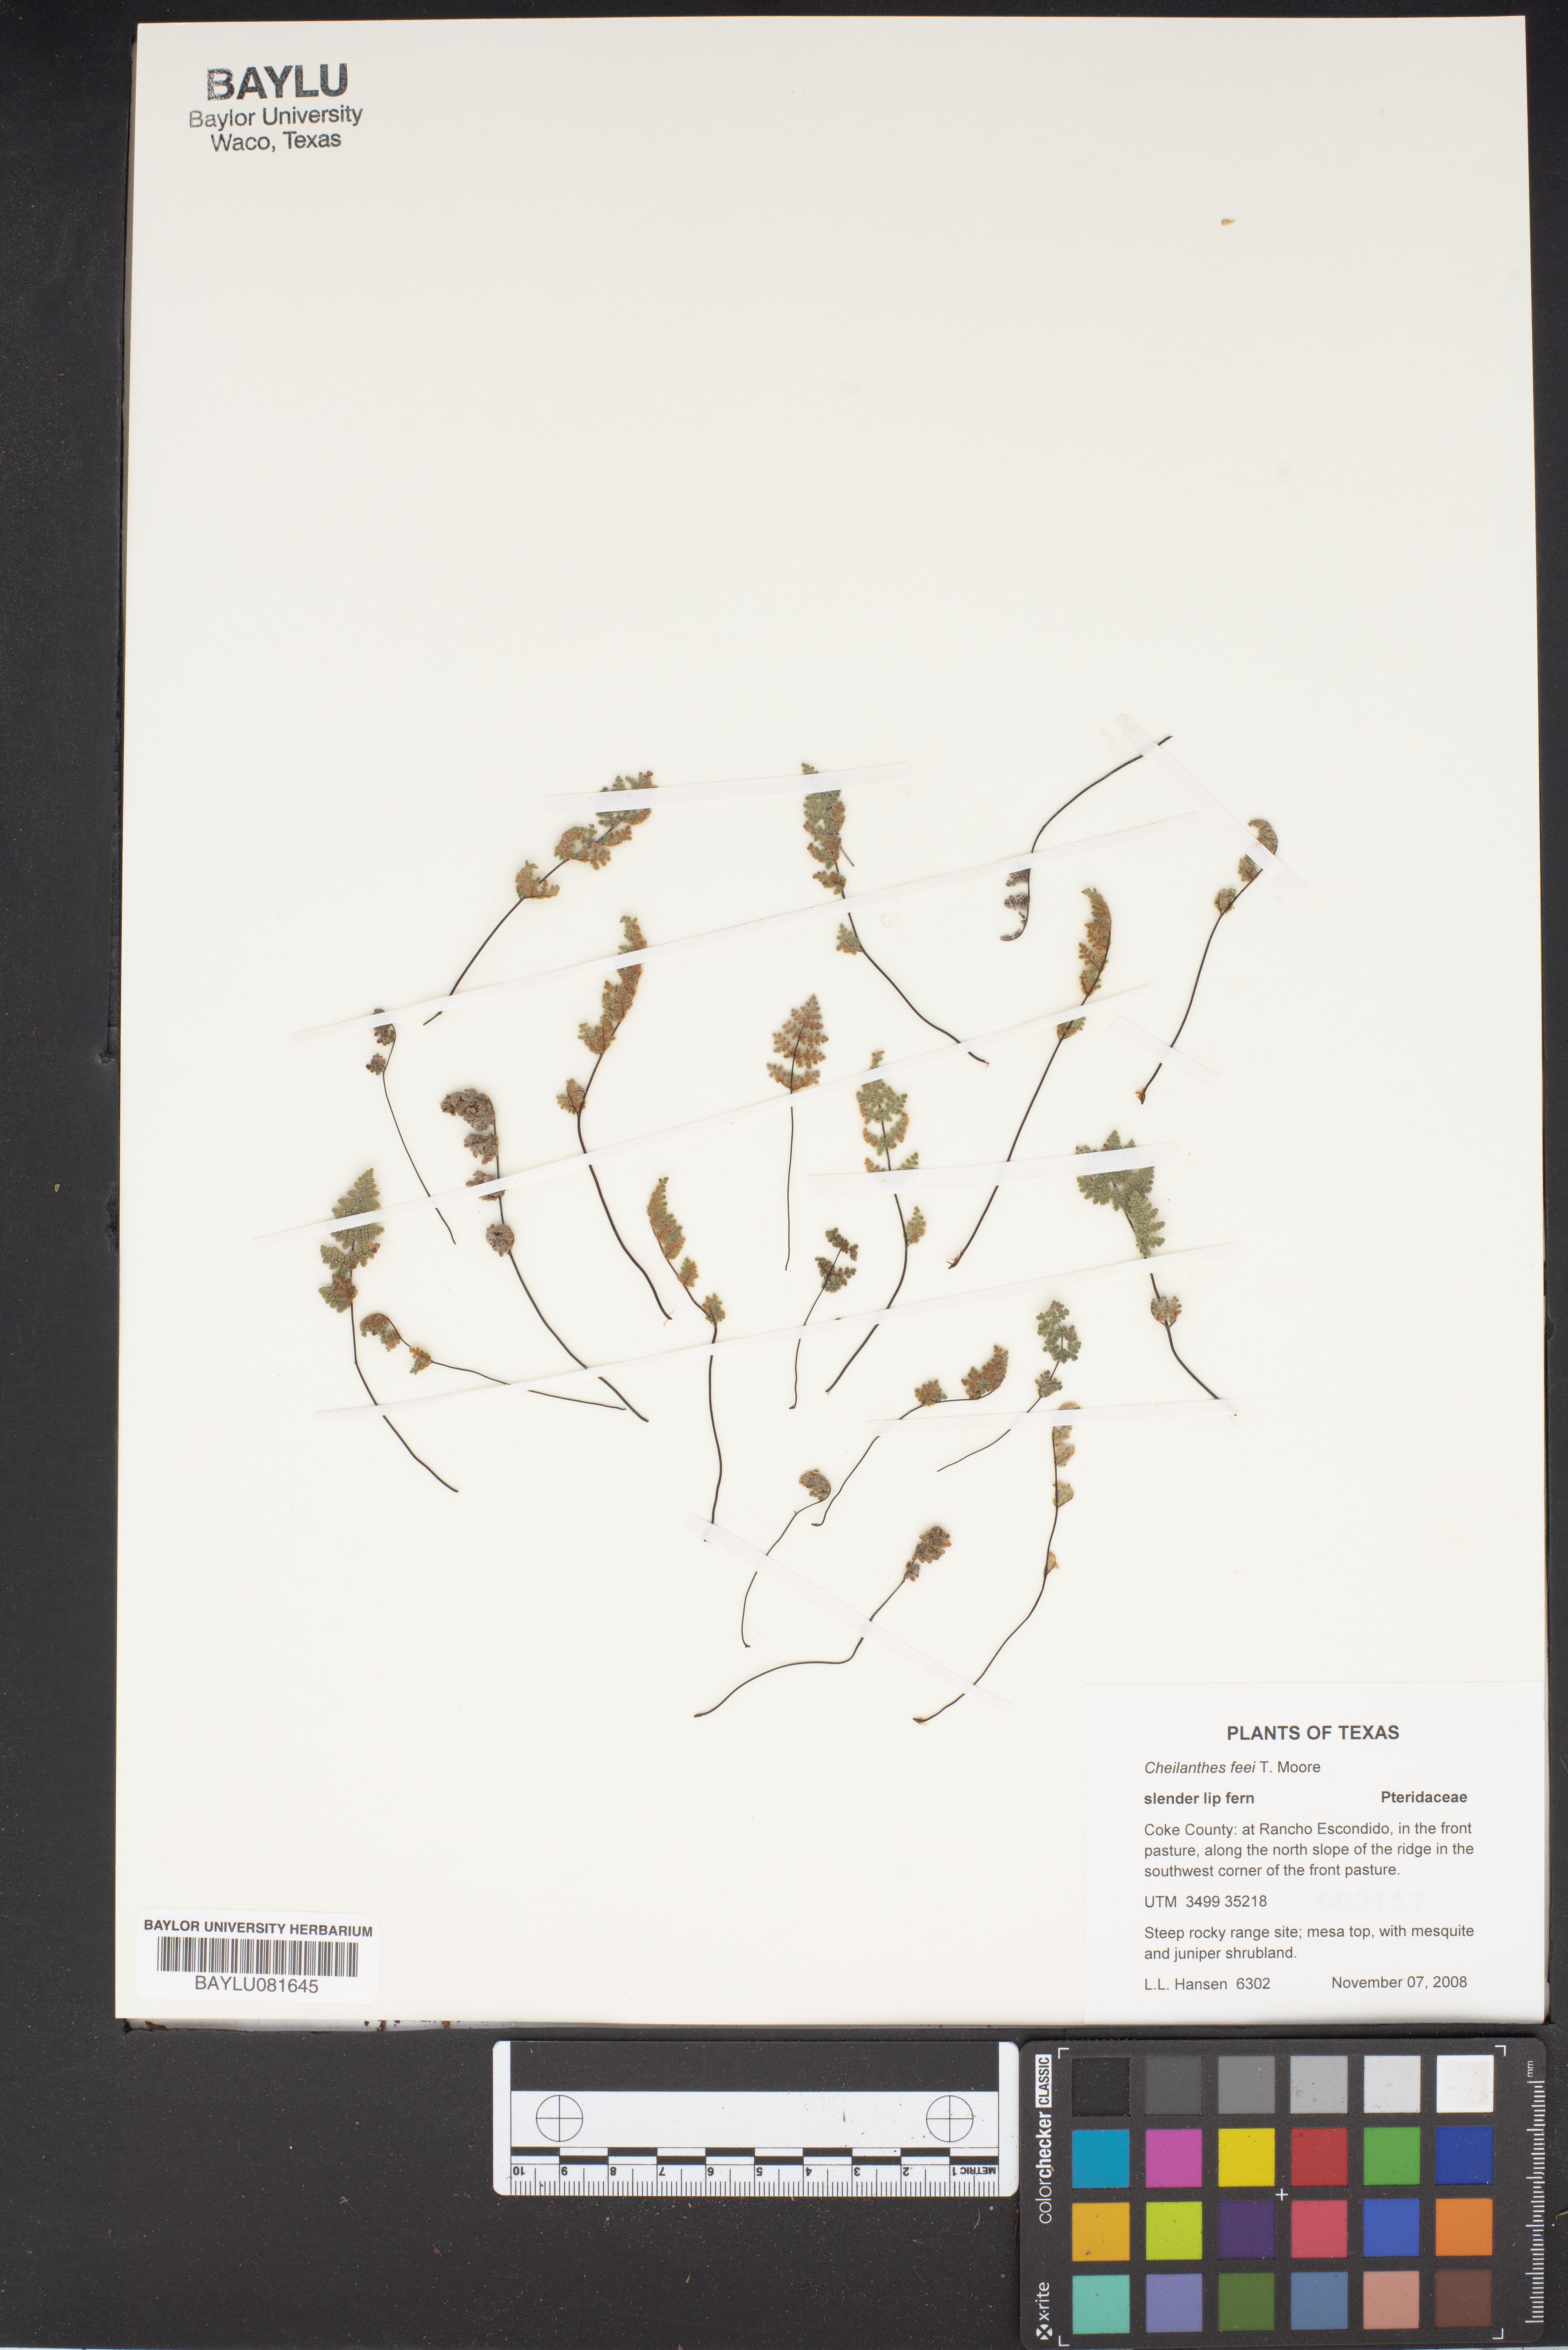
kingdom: Plantae
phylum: Tracheophyta
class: Polypodiopsida
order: Polypodiales
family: Pteridaceae
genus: Myriopteris
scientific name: Myriopteris gracilis
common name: Fee's lip fern
